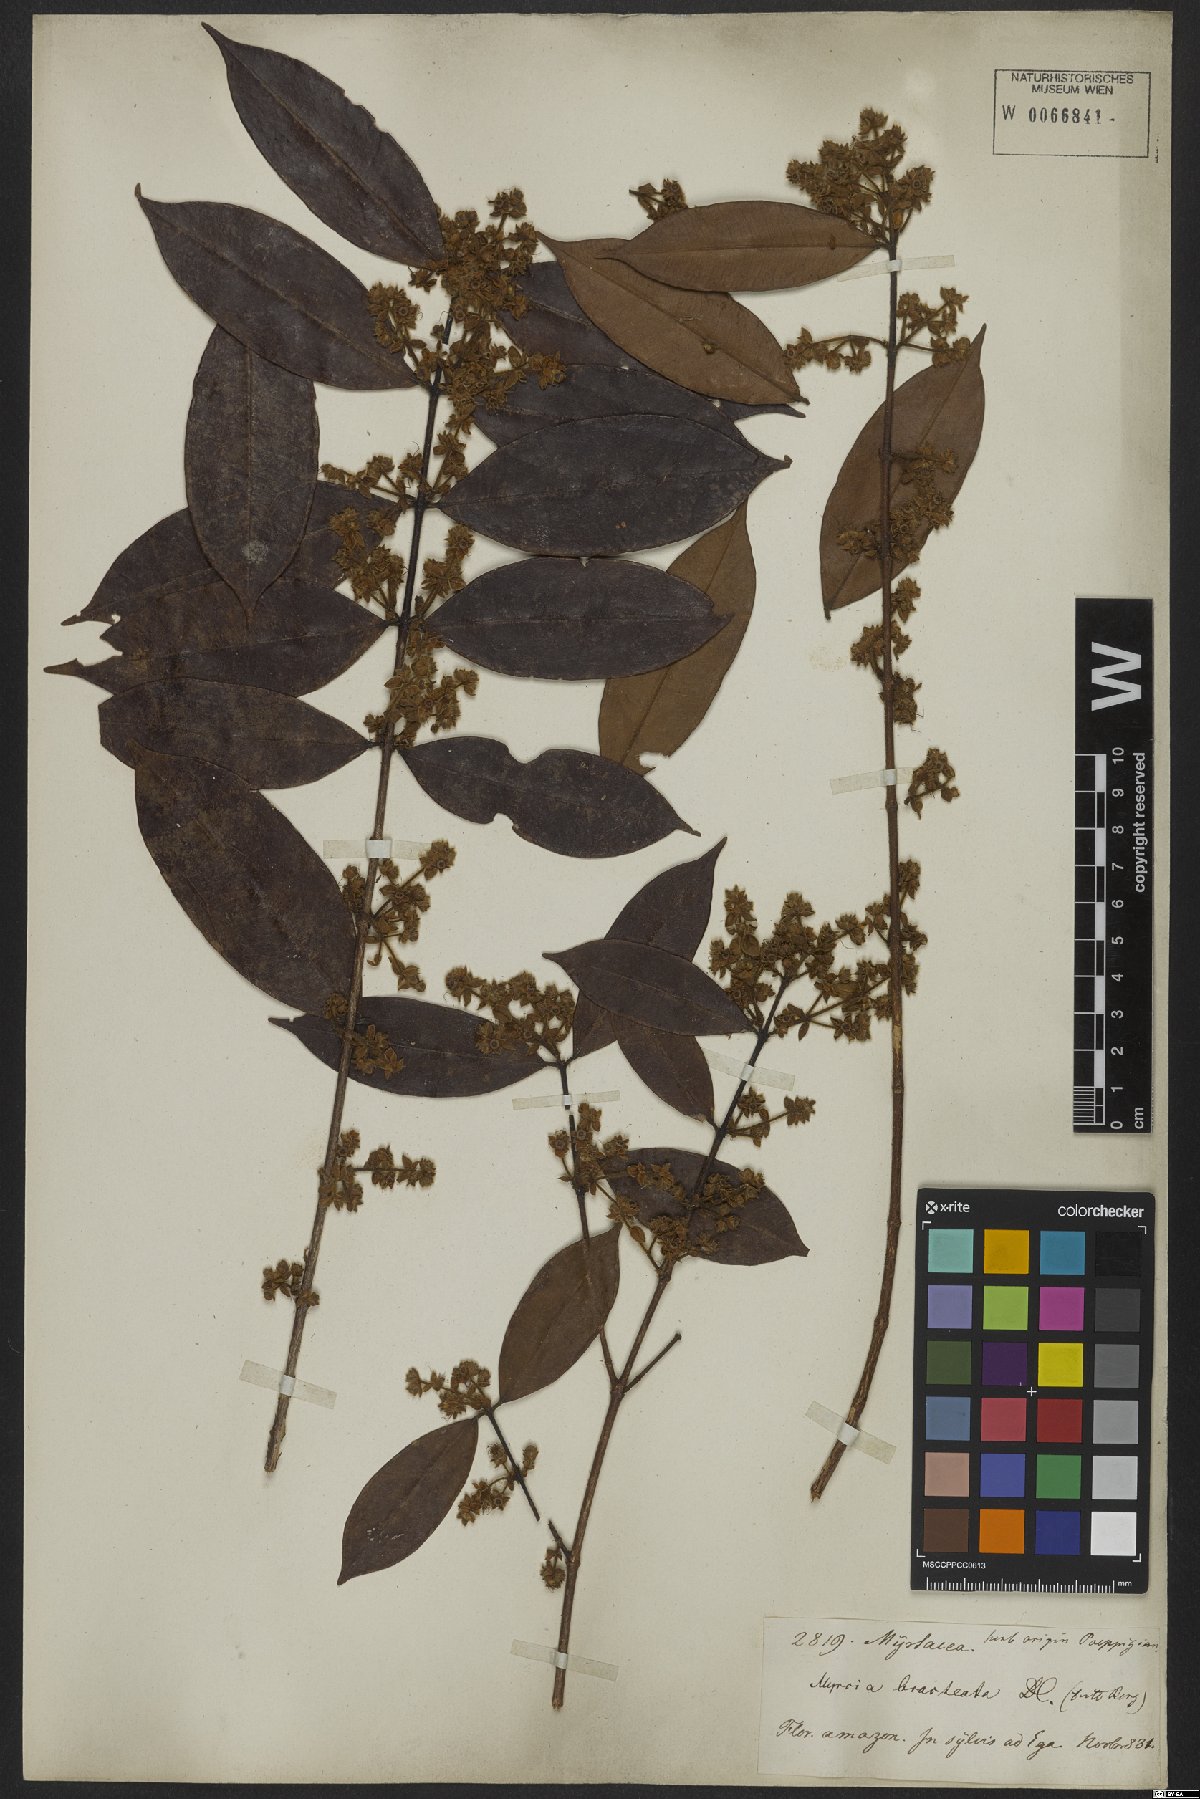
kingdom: Plantae
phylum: Tracheophyta
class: Magnoliopsida
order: Myrtales
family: Myrtaceae
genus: Myrcia
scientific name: Myrcia bracteata
